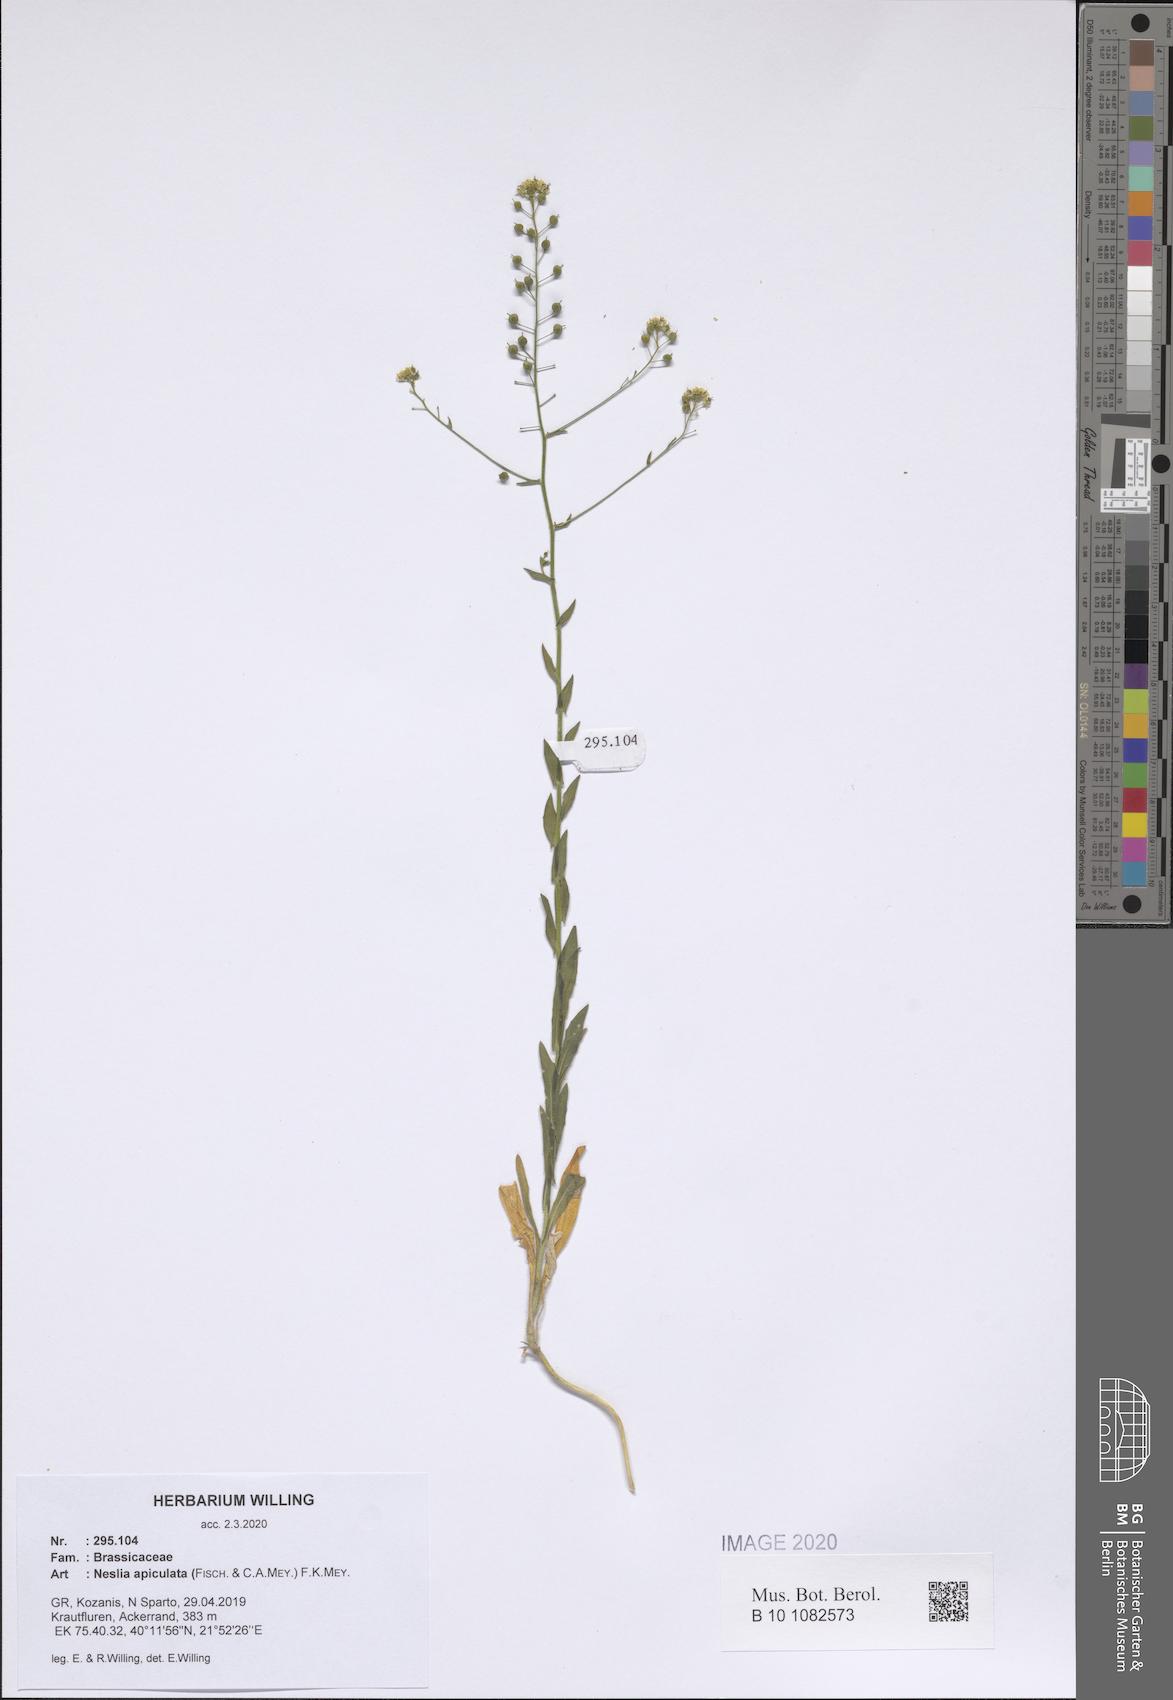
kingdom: Plantae
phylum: Tracheophyta
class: Magnoliopsida
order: Brassicales
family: Brassicaceae
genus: Neslia
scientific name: Neslia paniculata
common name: Ball mustard
